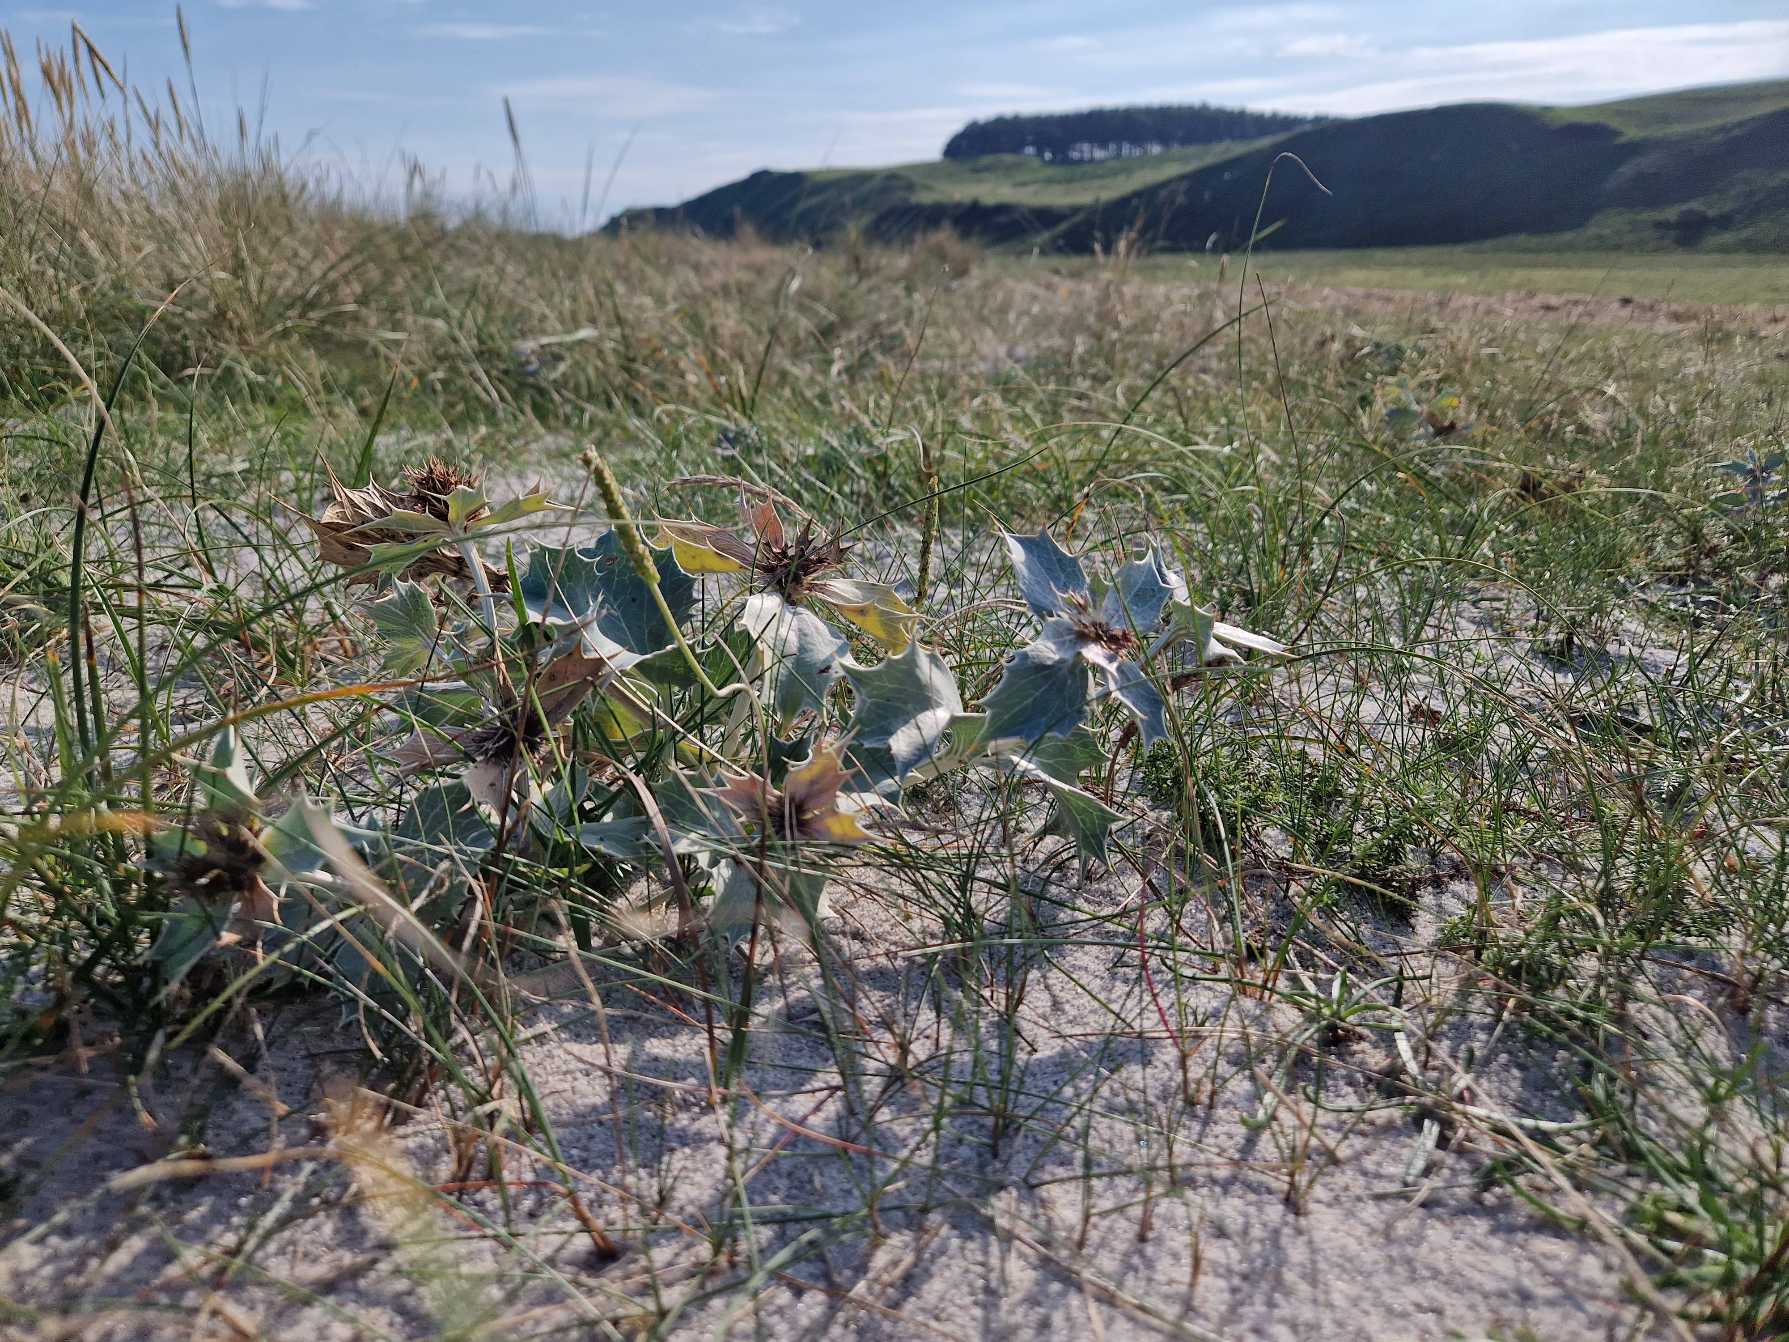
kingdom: Plantae
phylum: Tracheophyta
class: Magnoliopsida
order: Apiales
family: Apiaceae
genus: Eryngium
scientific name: Eryngium maritimum
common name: Strand-mandstro
